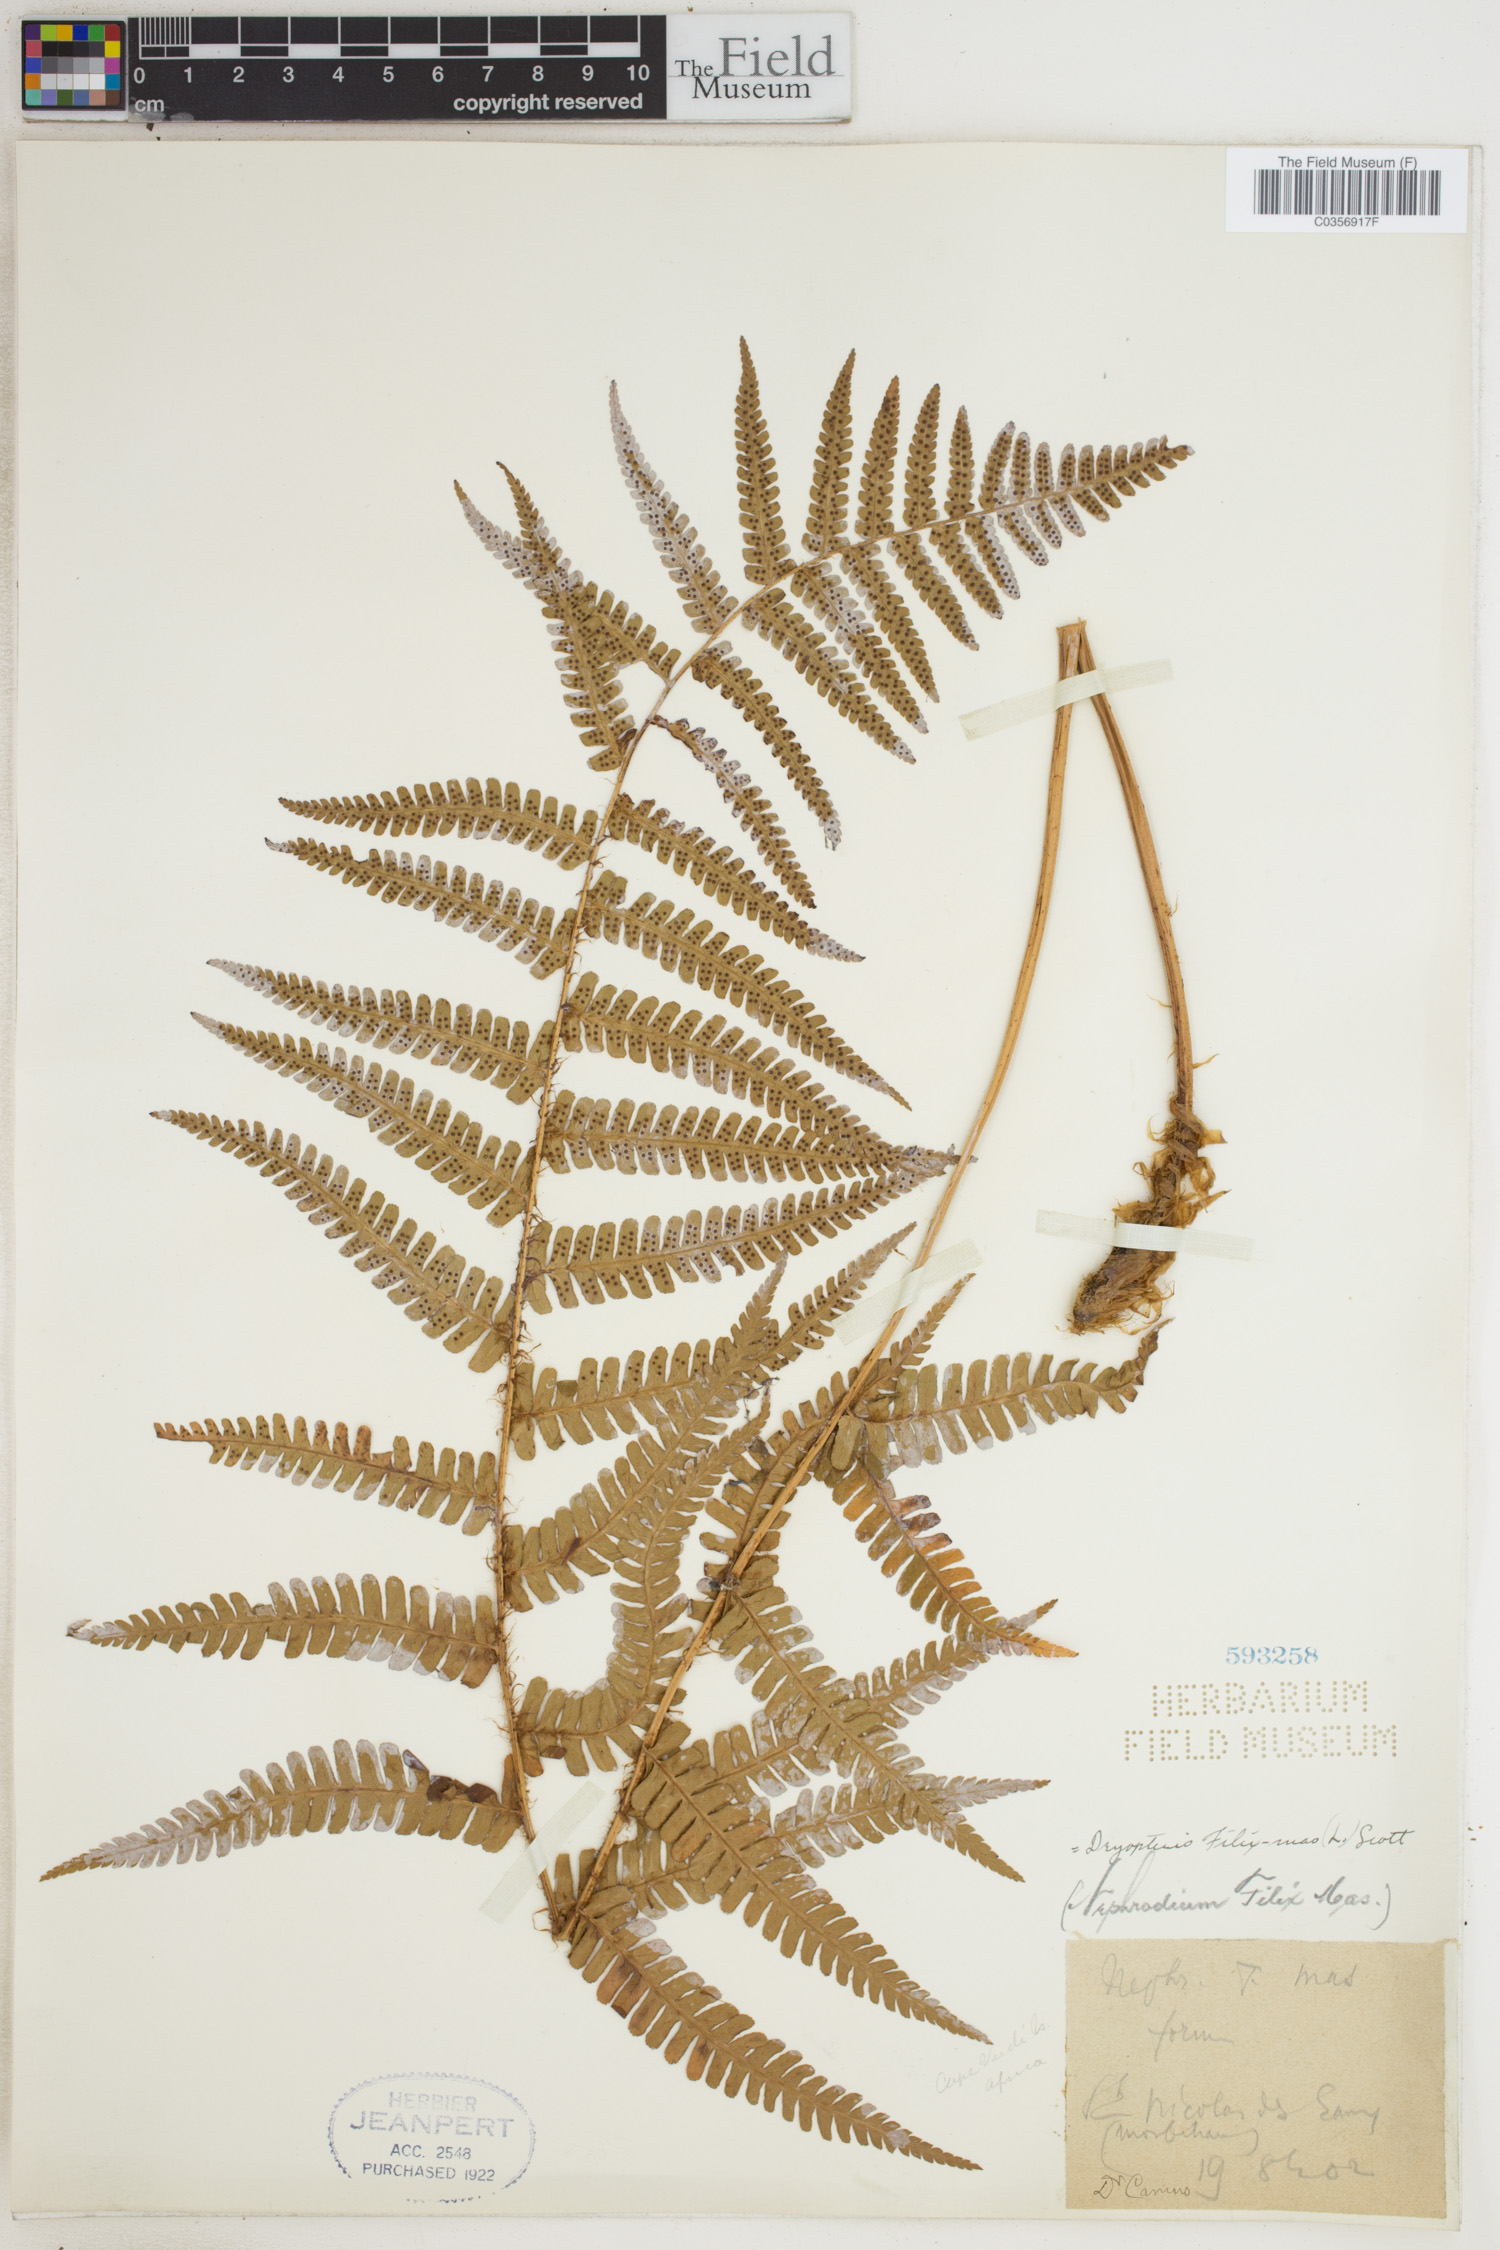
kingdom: Plantae
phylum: Tracheophyta
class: Polypodiopsida
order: Polypodiales
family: Dryopteridaceae
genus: Dryopteris
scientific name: Dryopteris filix-mas
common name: Male fern
